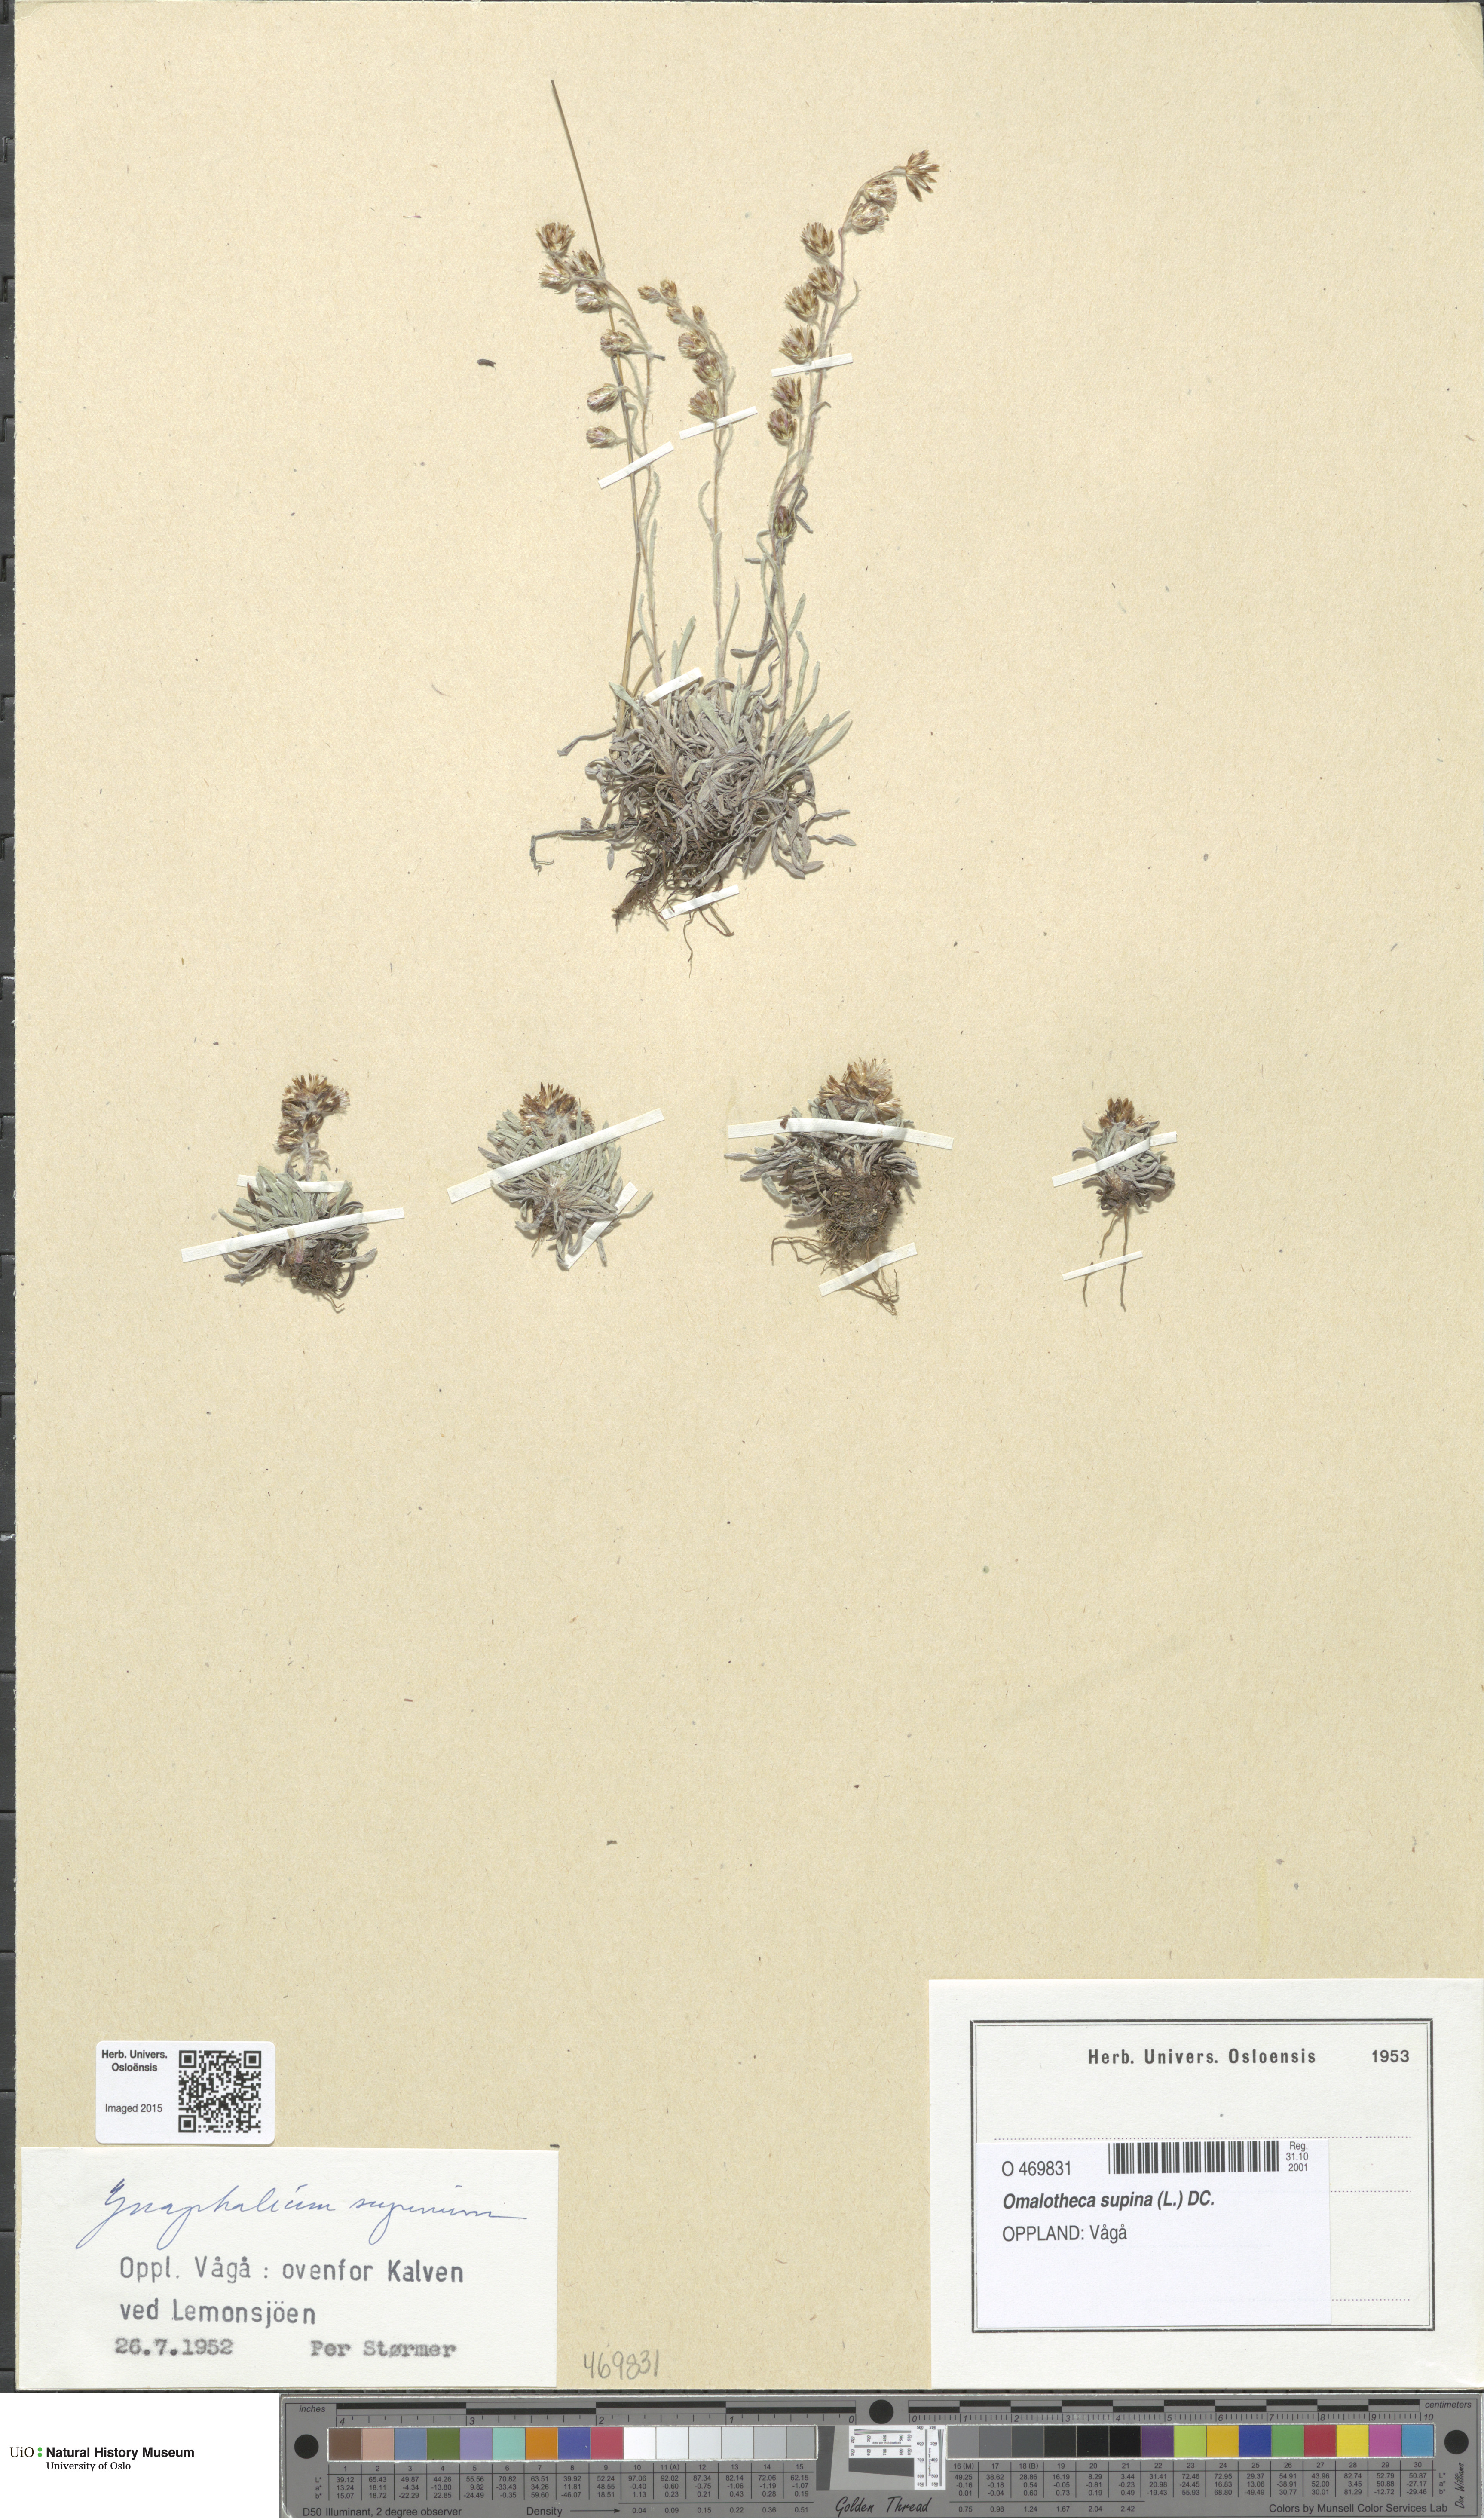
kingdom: Plantae
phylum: Tracheophyta
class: Magnoliopsida
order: Asterales
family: Asteraceae
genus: Omalotheca
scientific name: Omalotheca supina
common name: Alpine arctic-cudweed
